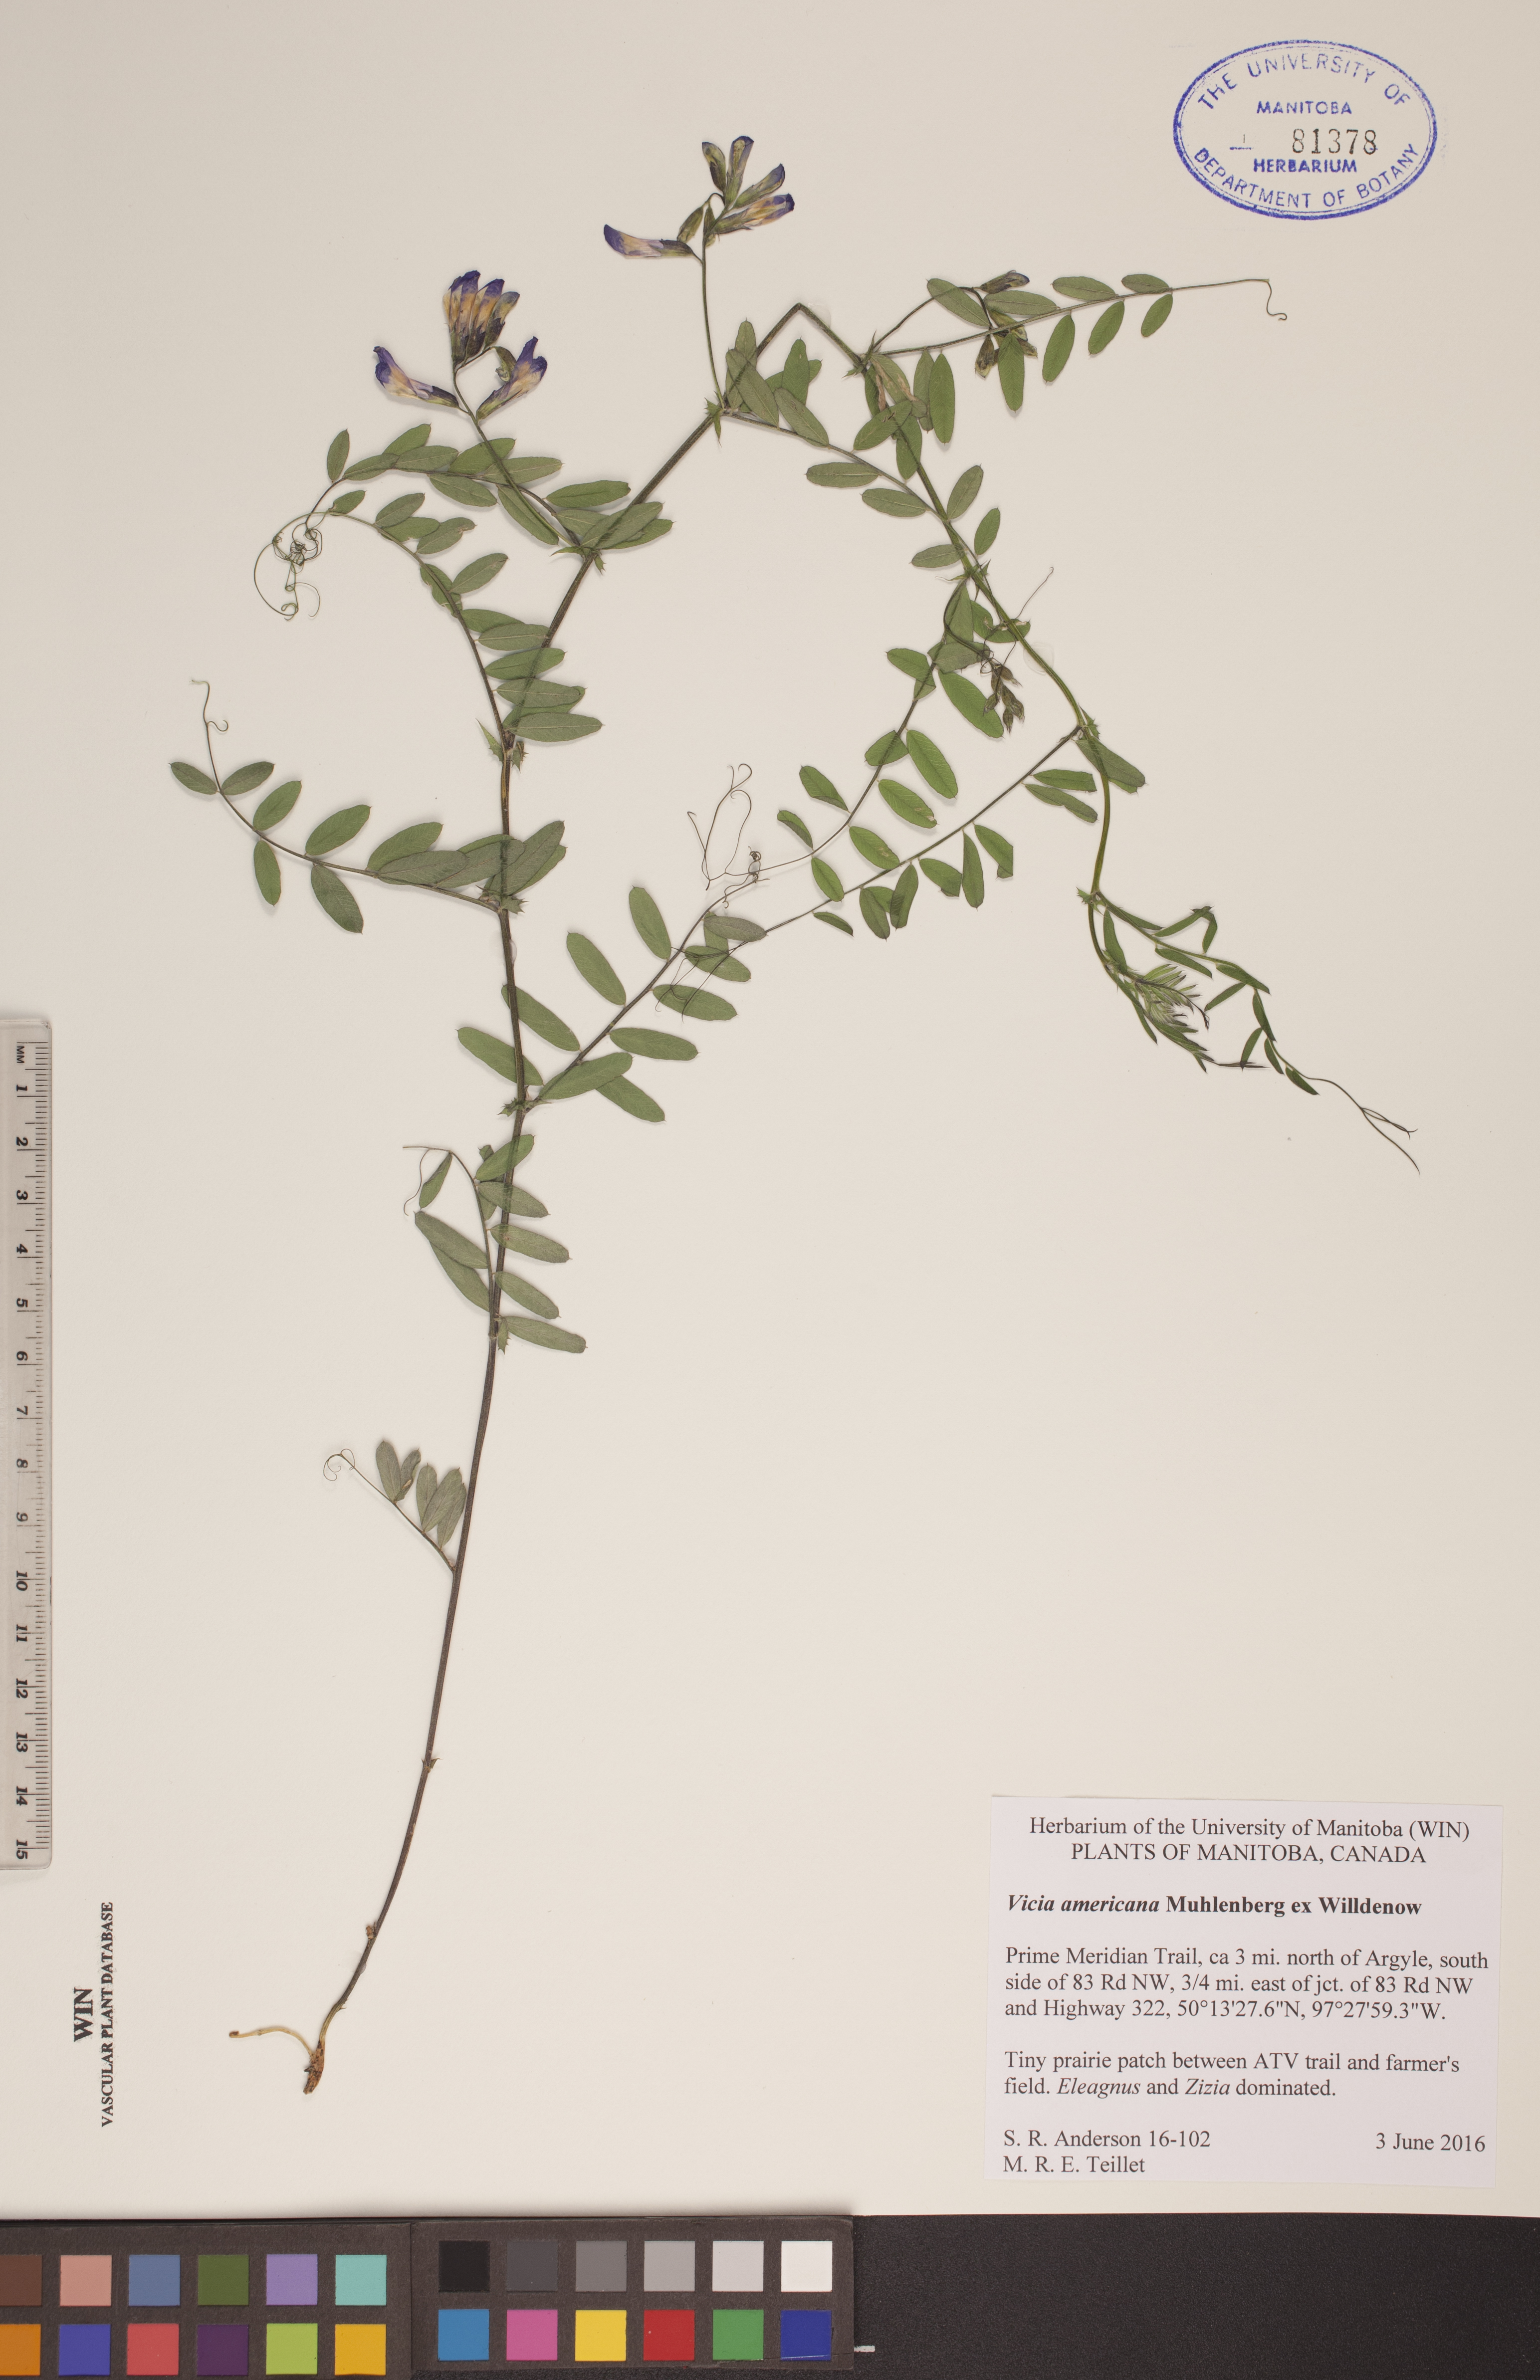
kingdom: Plantae
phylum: Tracheophyta
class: Magnoliopsida
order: Fabales
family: Fabaceae
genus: Vicia
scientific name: Vicia americana
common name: American vetch
